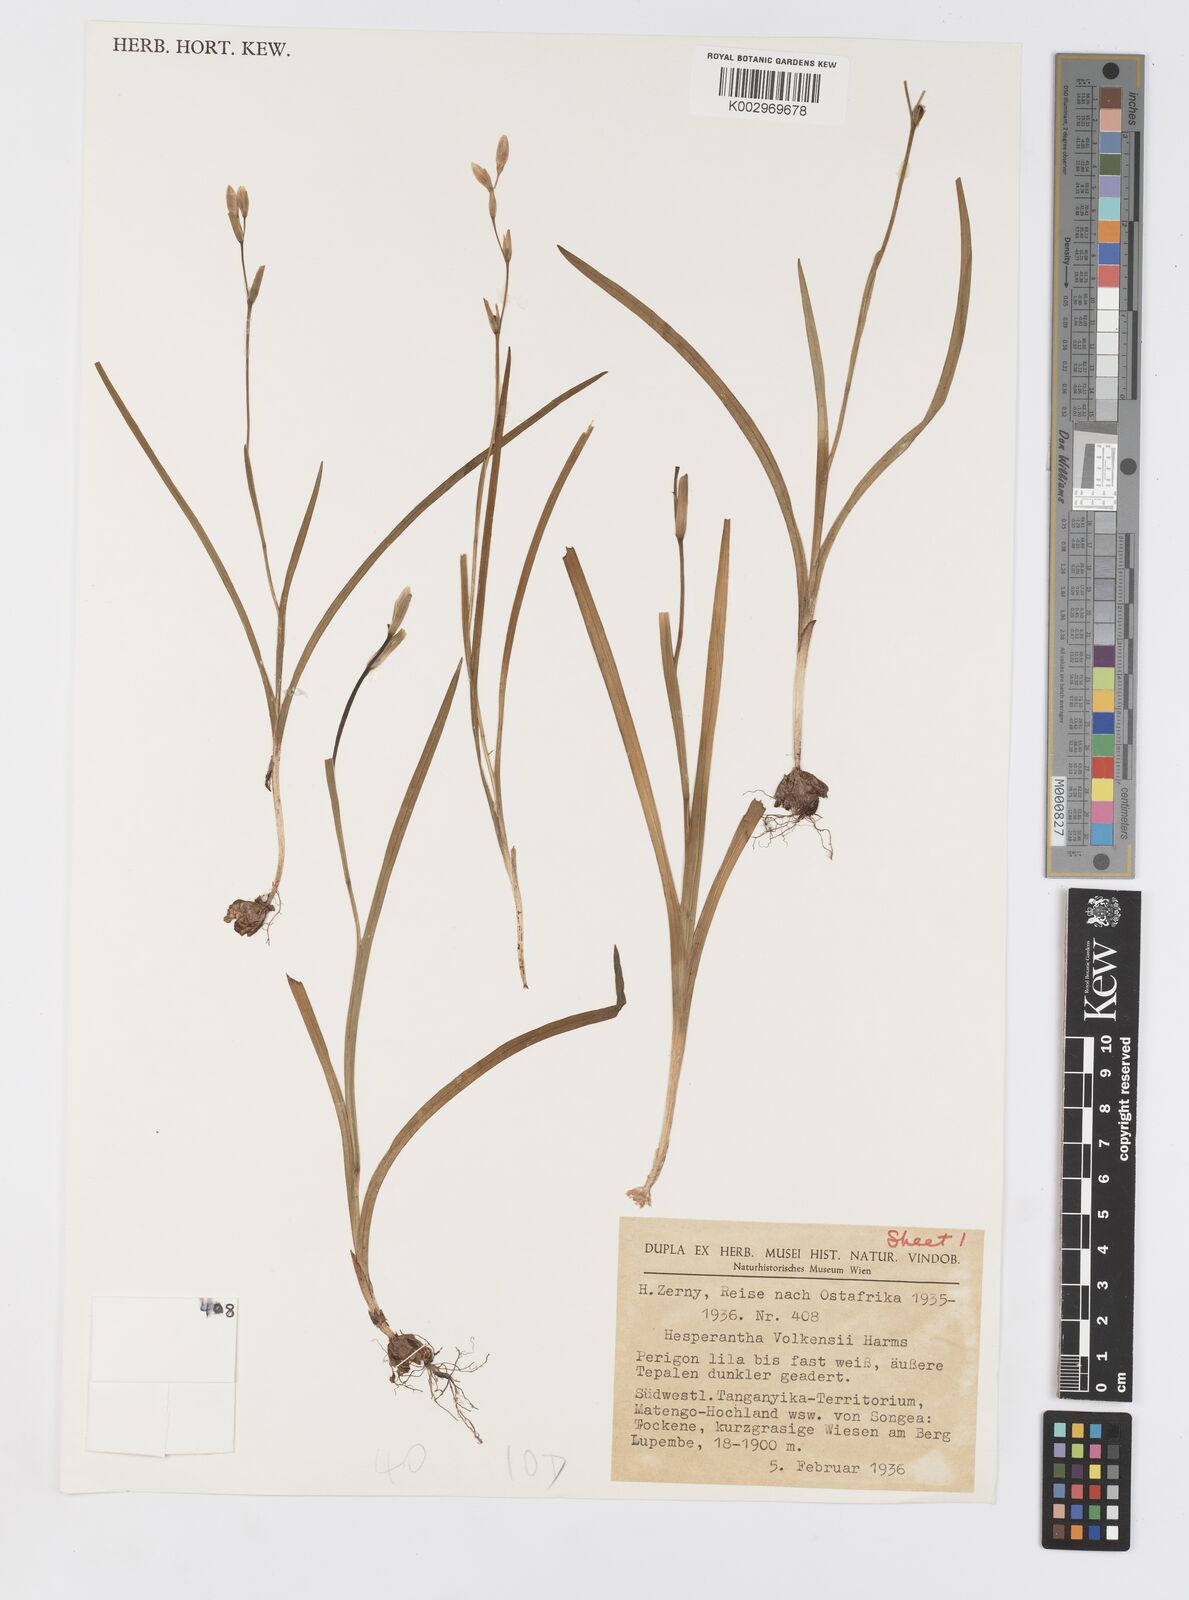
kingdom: Plantae
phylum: Tracheophyta
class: Liliopsida
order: Asparagales
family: Iridaceae
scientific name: Iridaceae
